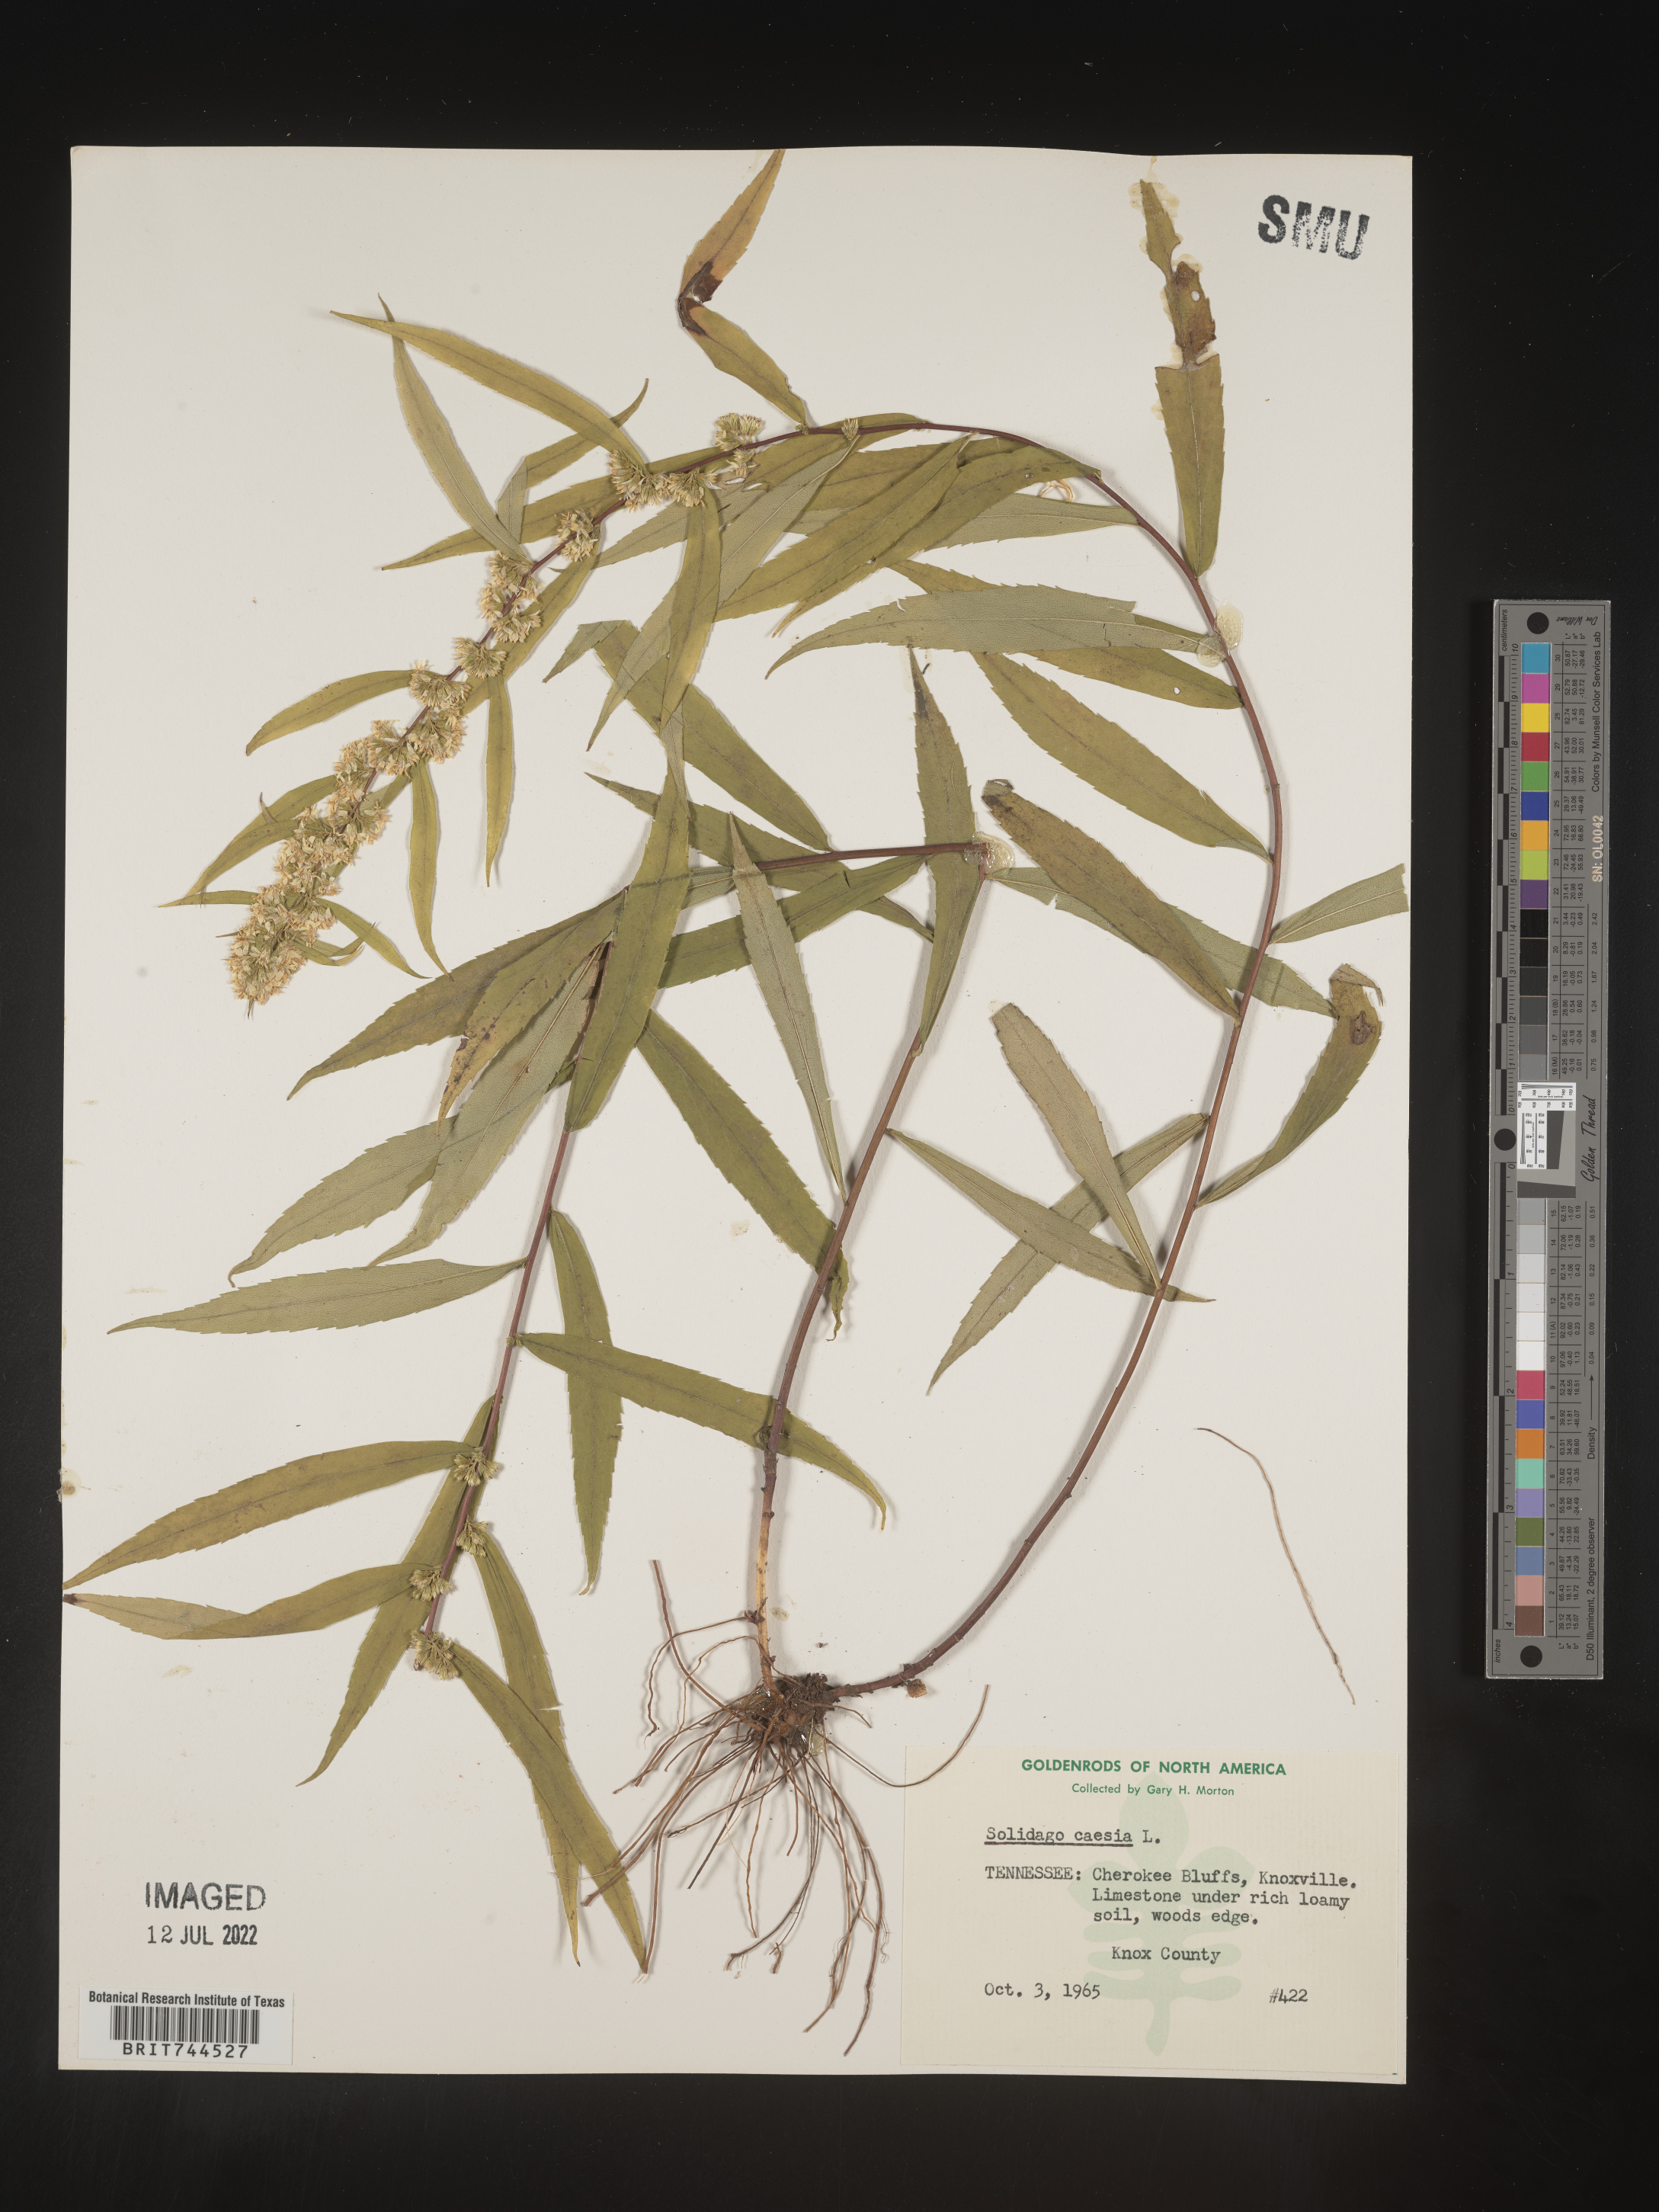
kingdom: Plantae
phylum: Tracheophyta
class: Magnoliopsida
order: Asterales
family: Asteraceae
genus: Solidago
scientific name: Solidago caesia
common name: Woodland goldenrod
